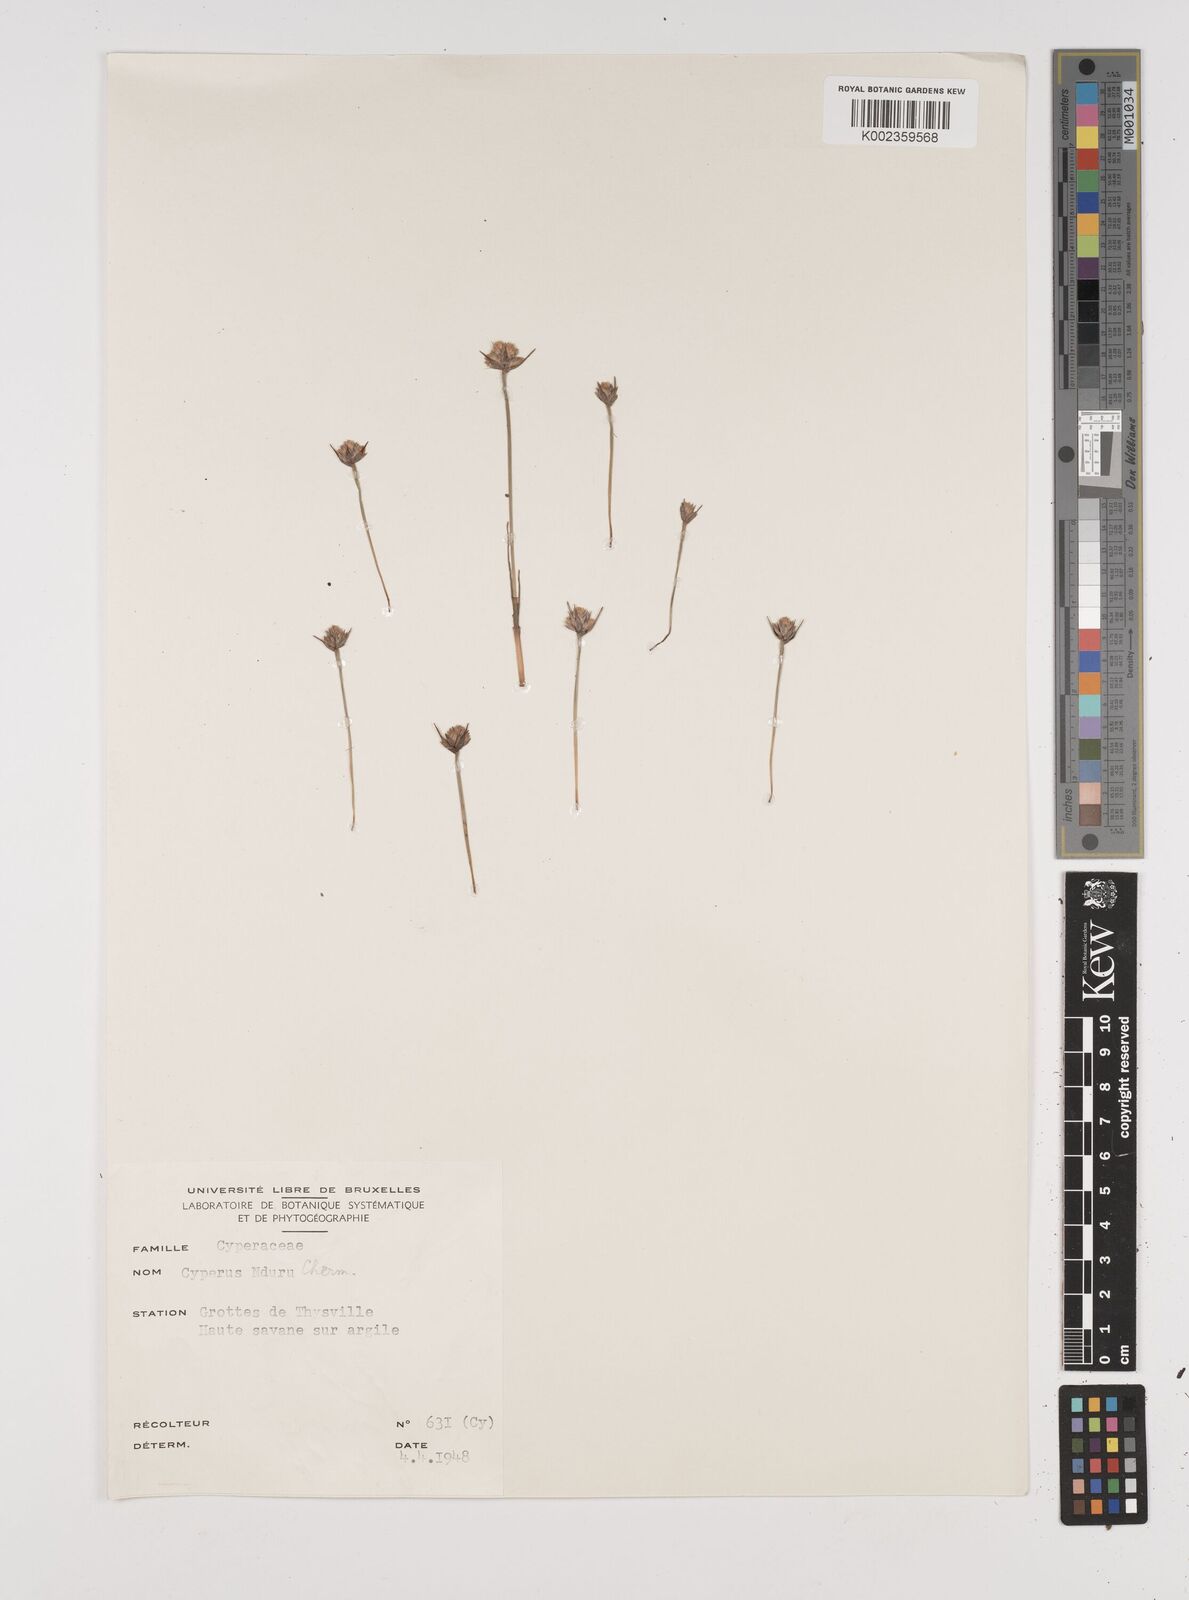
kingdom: Plantae
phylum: Tracheophyta
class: Liliopsida
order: Poales
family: Cyperaceae
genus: Cyperus
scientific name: Cyperus nduru
